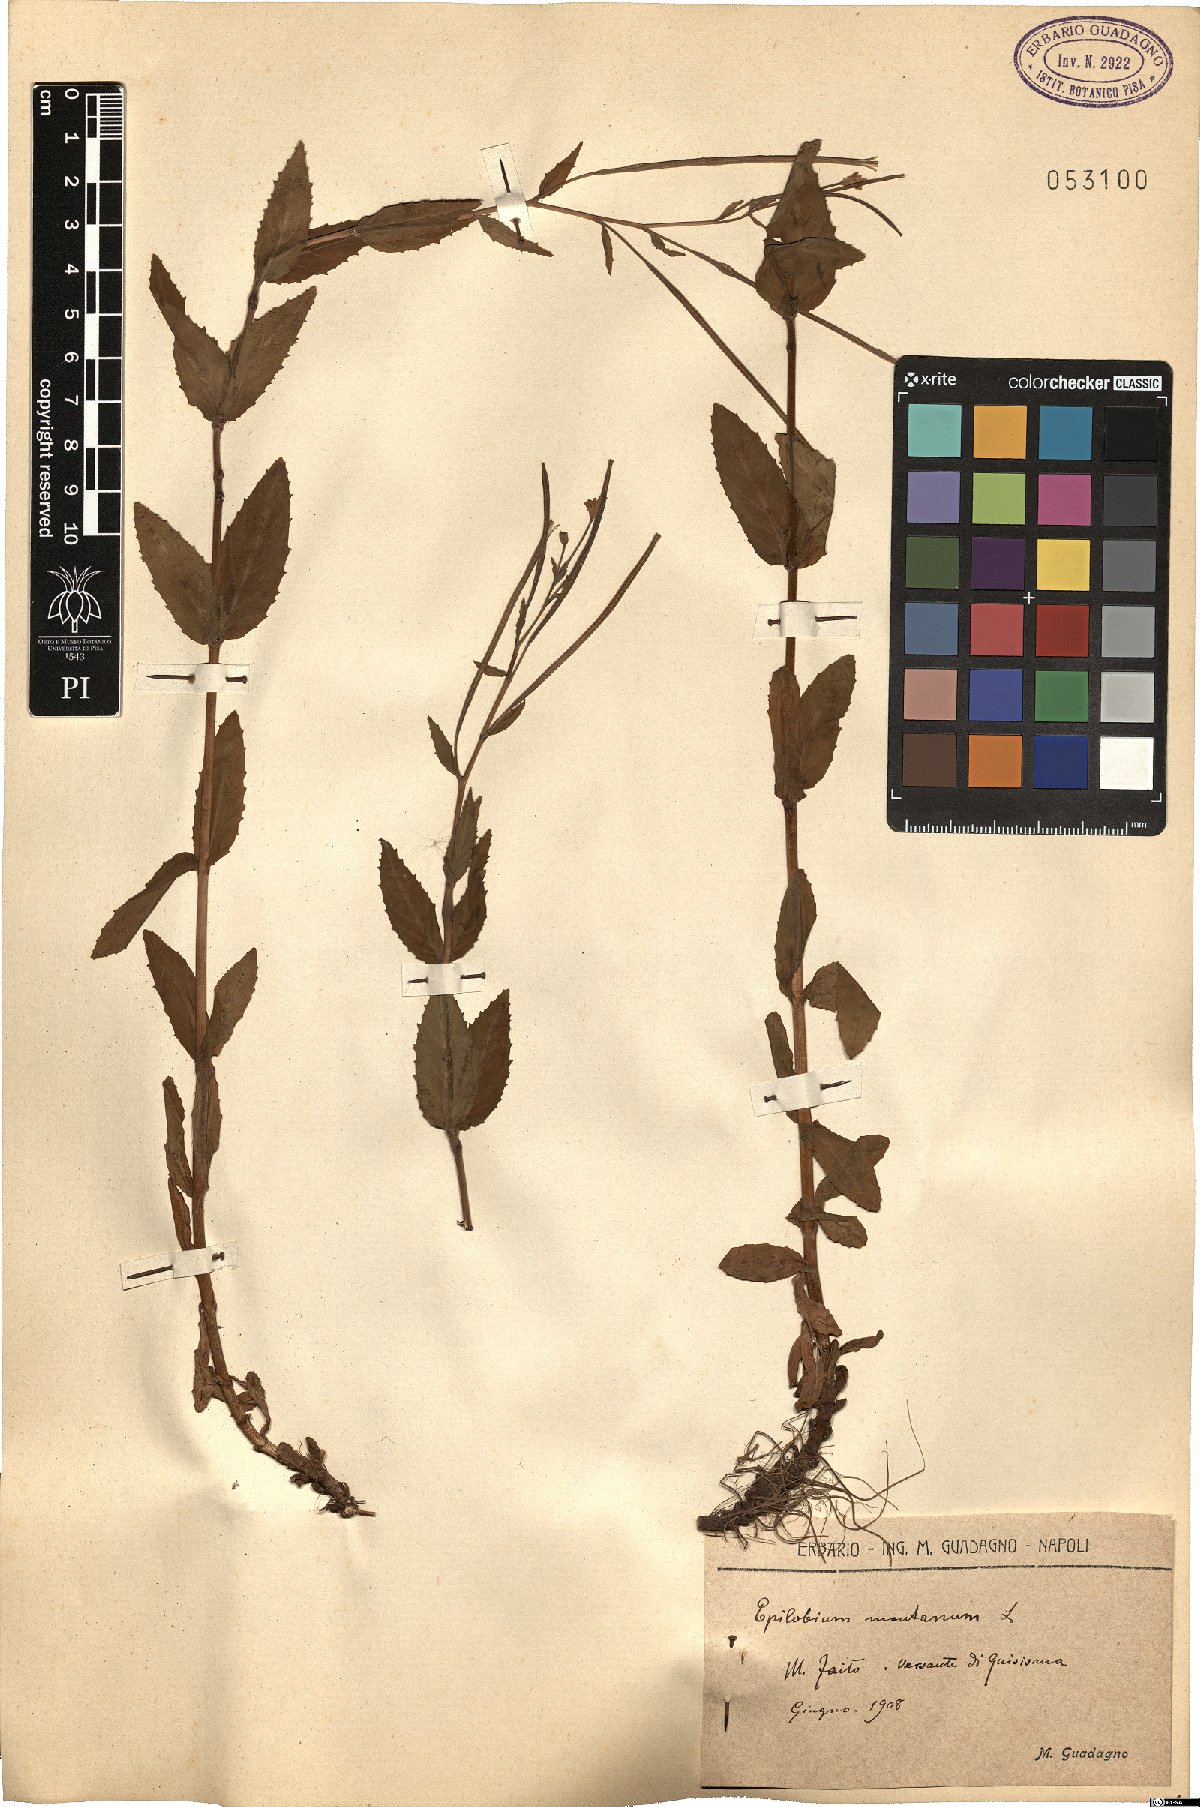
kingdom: Plantae
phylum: Tracheophyta
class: Magnoliopsida
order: Myrtales
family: Onagraceae
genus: Epilobium
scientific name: Epilobium montanum
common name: Broad-leaved willowherb
